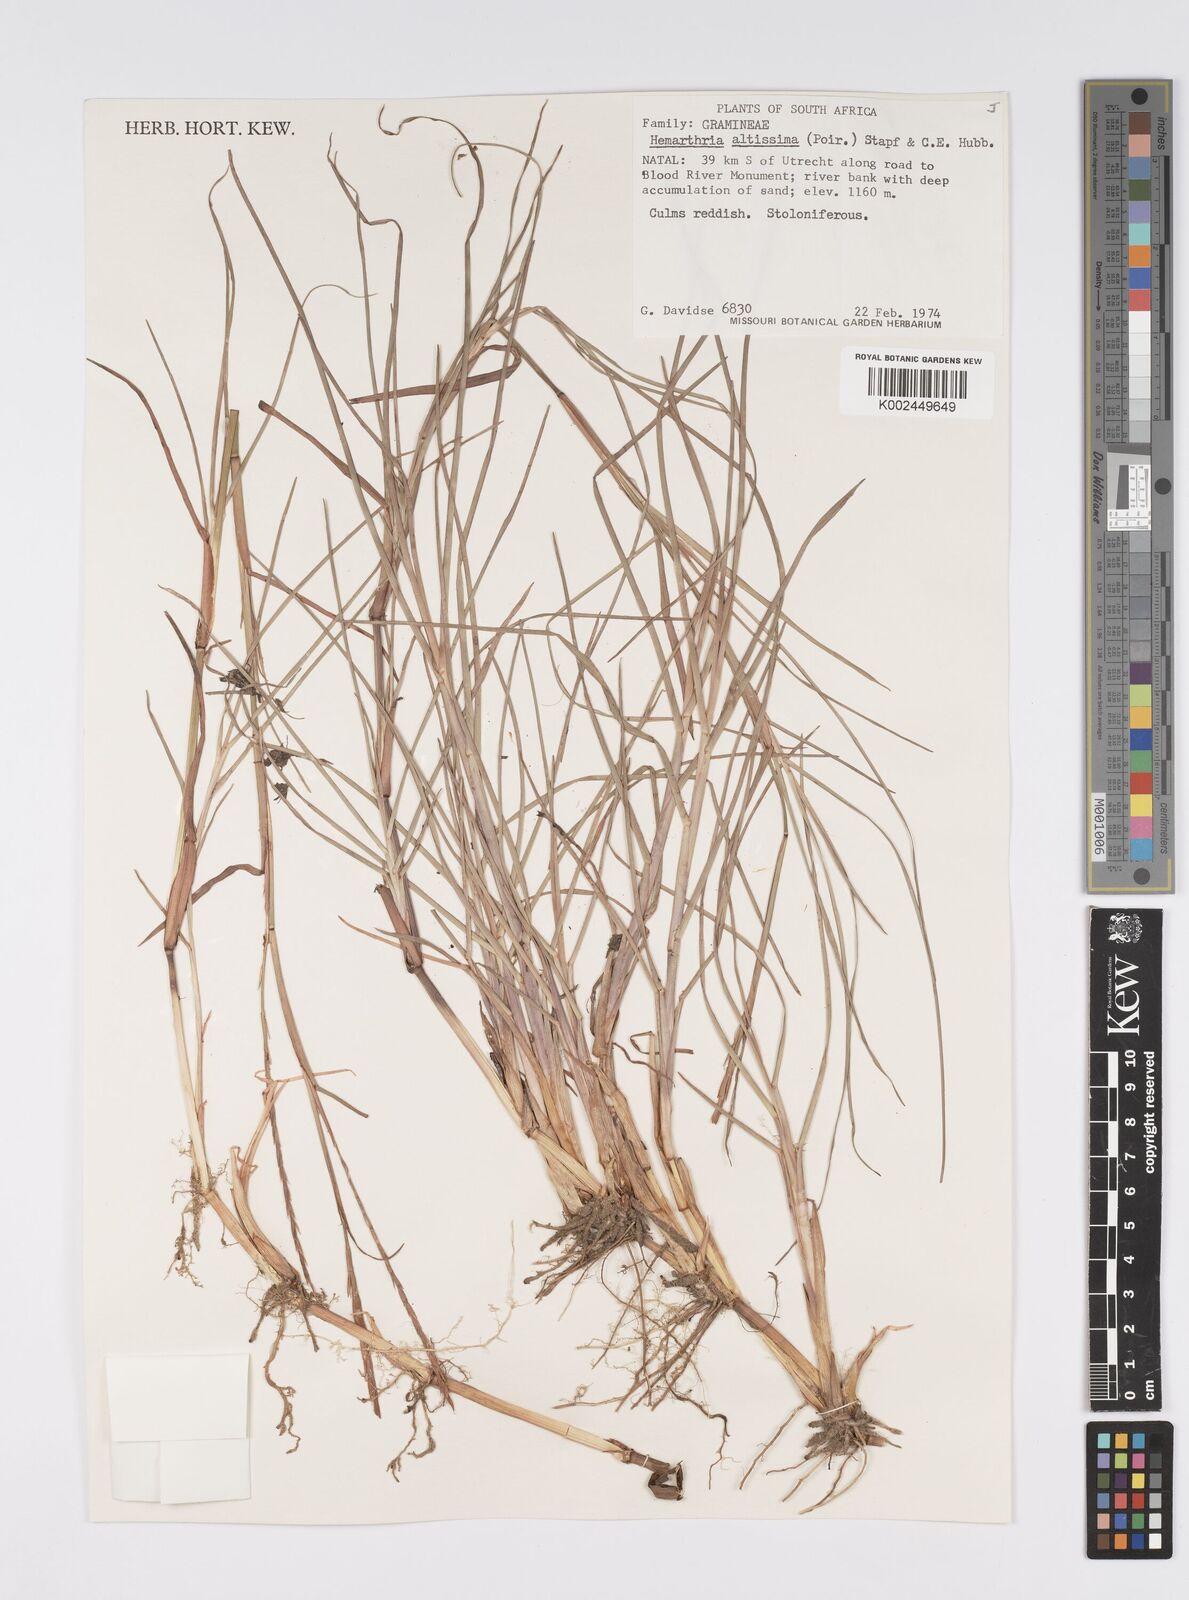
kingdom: Plantae
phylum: Tracheophyta
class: Liliopsida
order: Poales
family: Poaceae
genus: Hemarthria
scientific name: Hemarthria altissima
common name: African jointgrass
